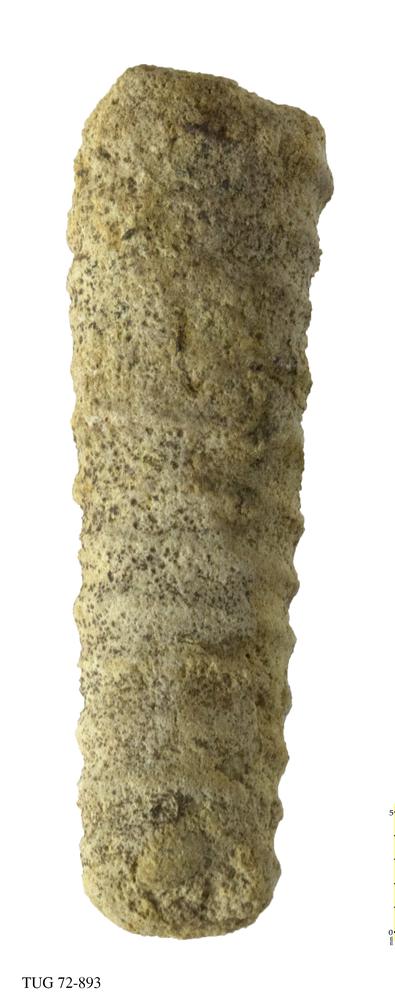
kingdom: Animalia
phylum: Mollusca
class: Cephalopoda
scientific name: Cephalopoda
